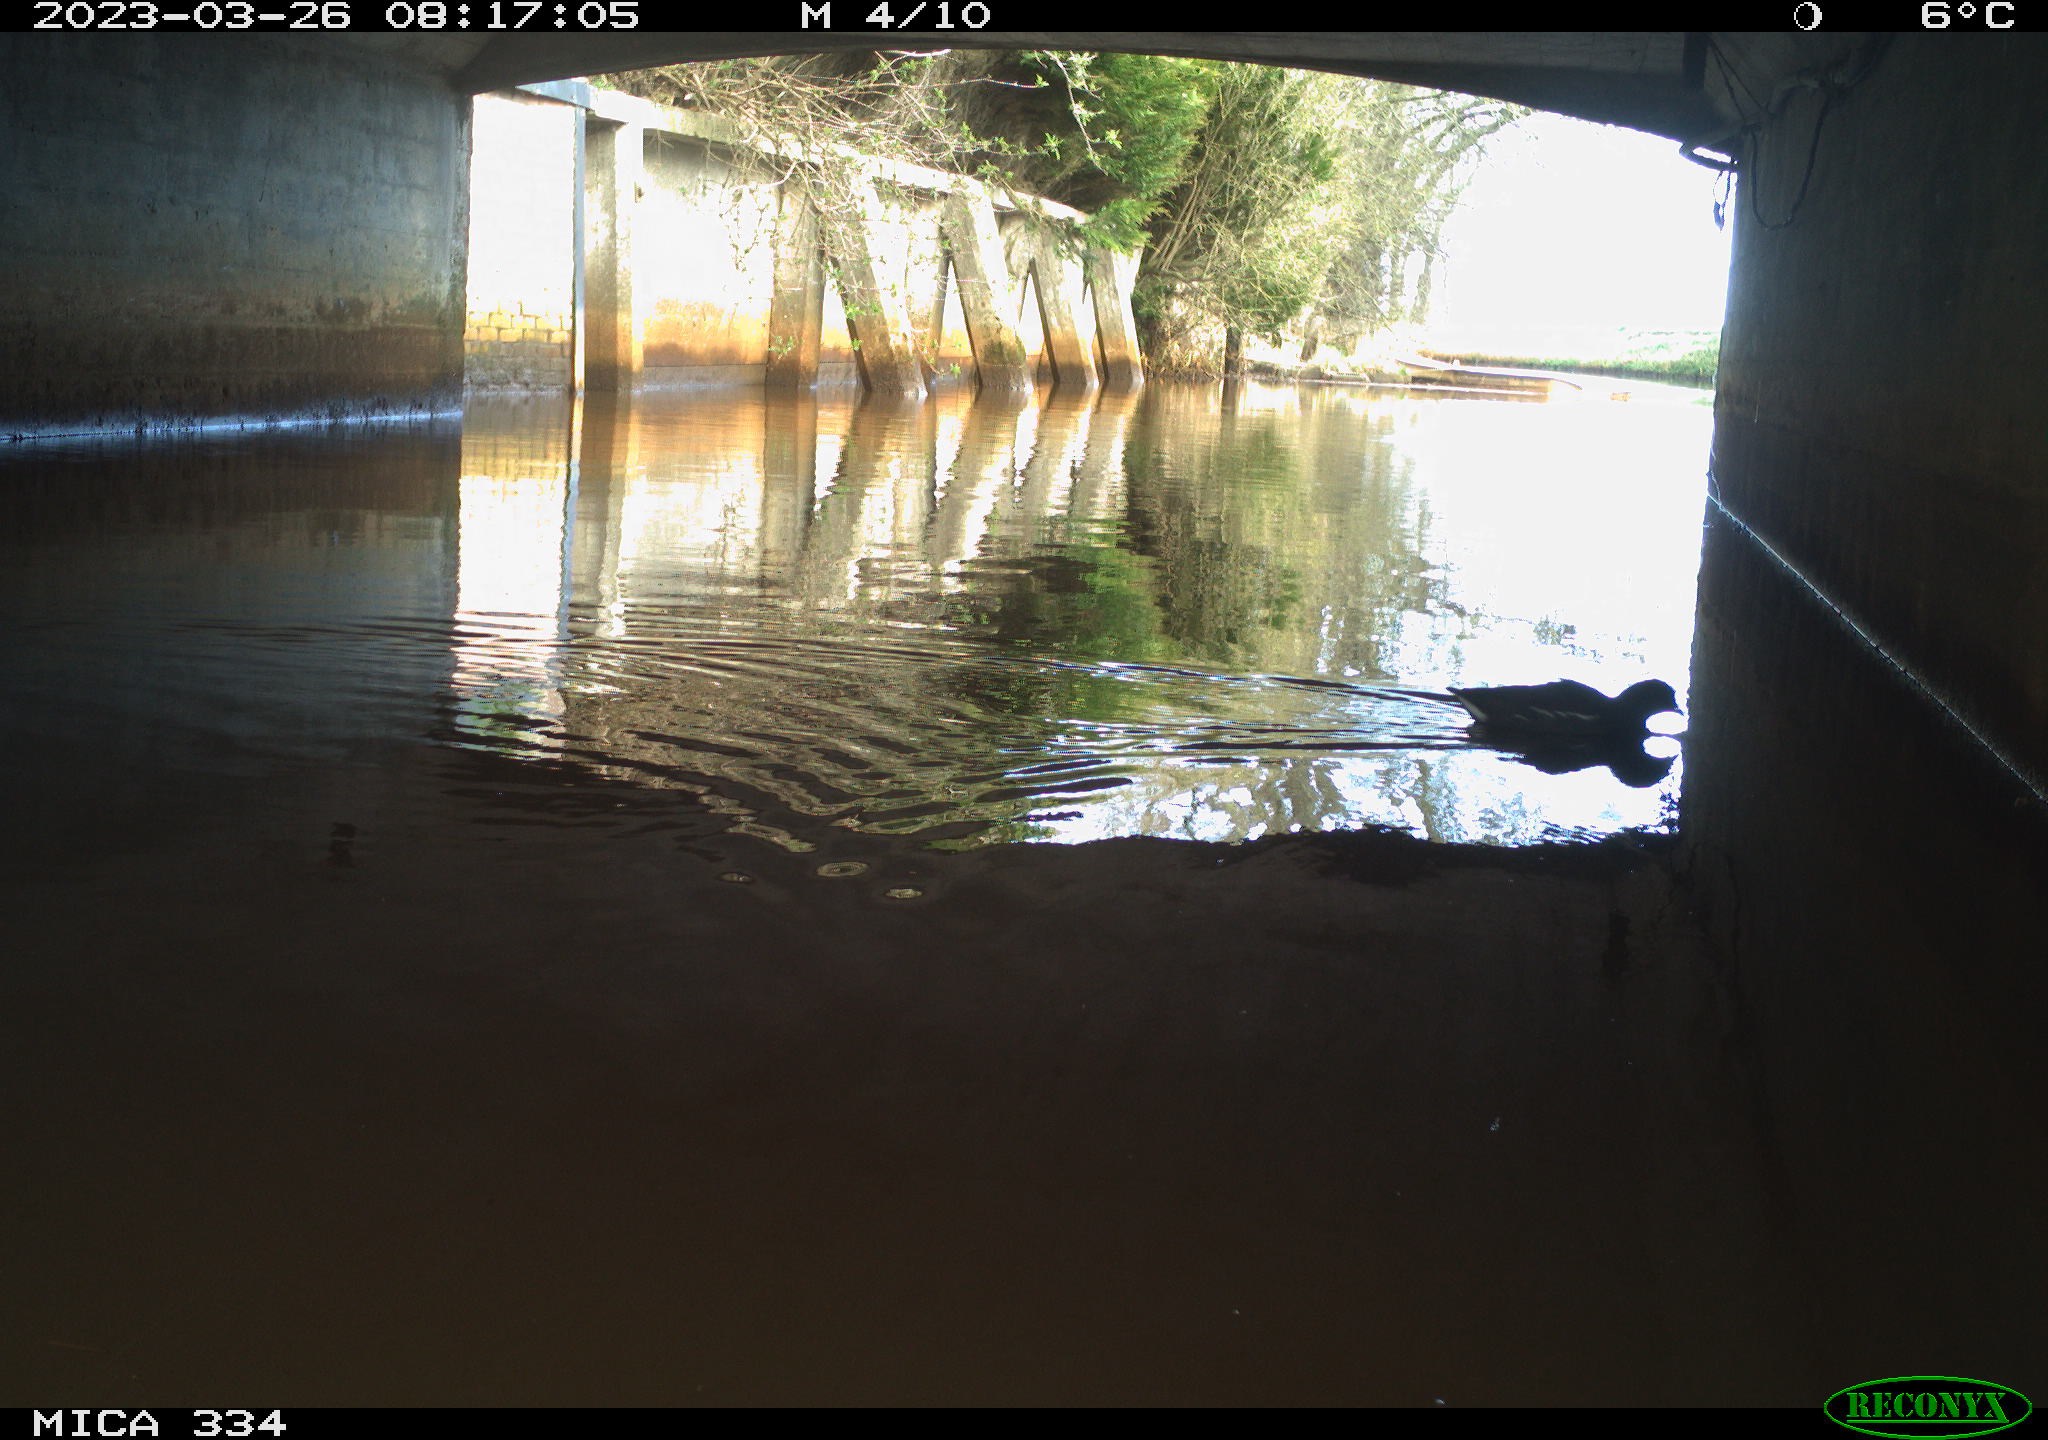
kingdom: Animalia
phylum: Chordata
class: Aves
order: Gruiformes
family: Rallidae
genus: Gallinula
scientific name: Gallinula chloropus
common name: Common moorhen
